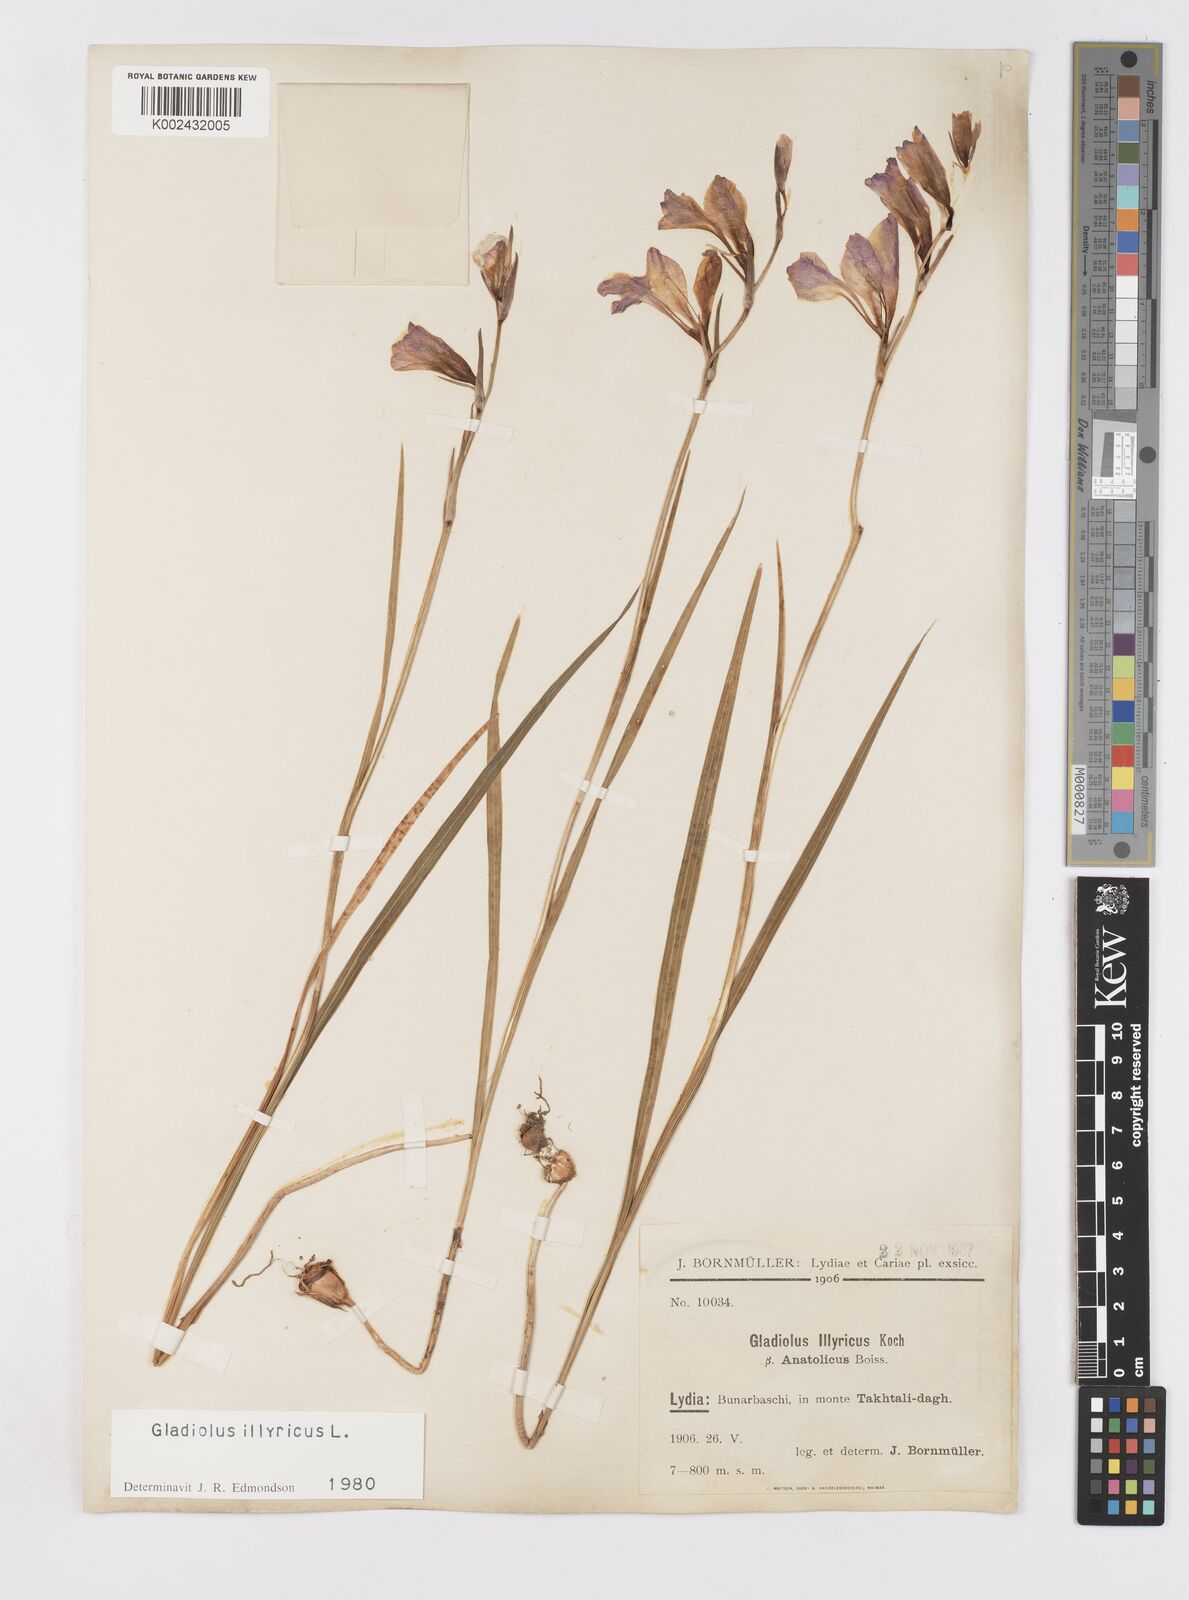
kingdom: Plantae
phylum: Tracheophyta
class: Liliopsida
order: Asparagales
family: Iridaceae
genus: Gladiolus
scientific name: Gladiolus illyricus
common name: Wild gladiolus
